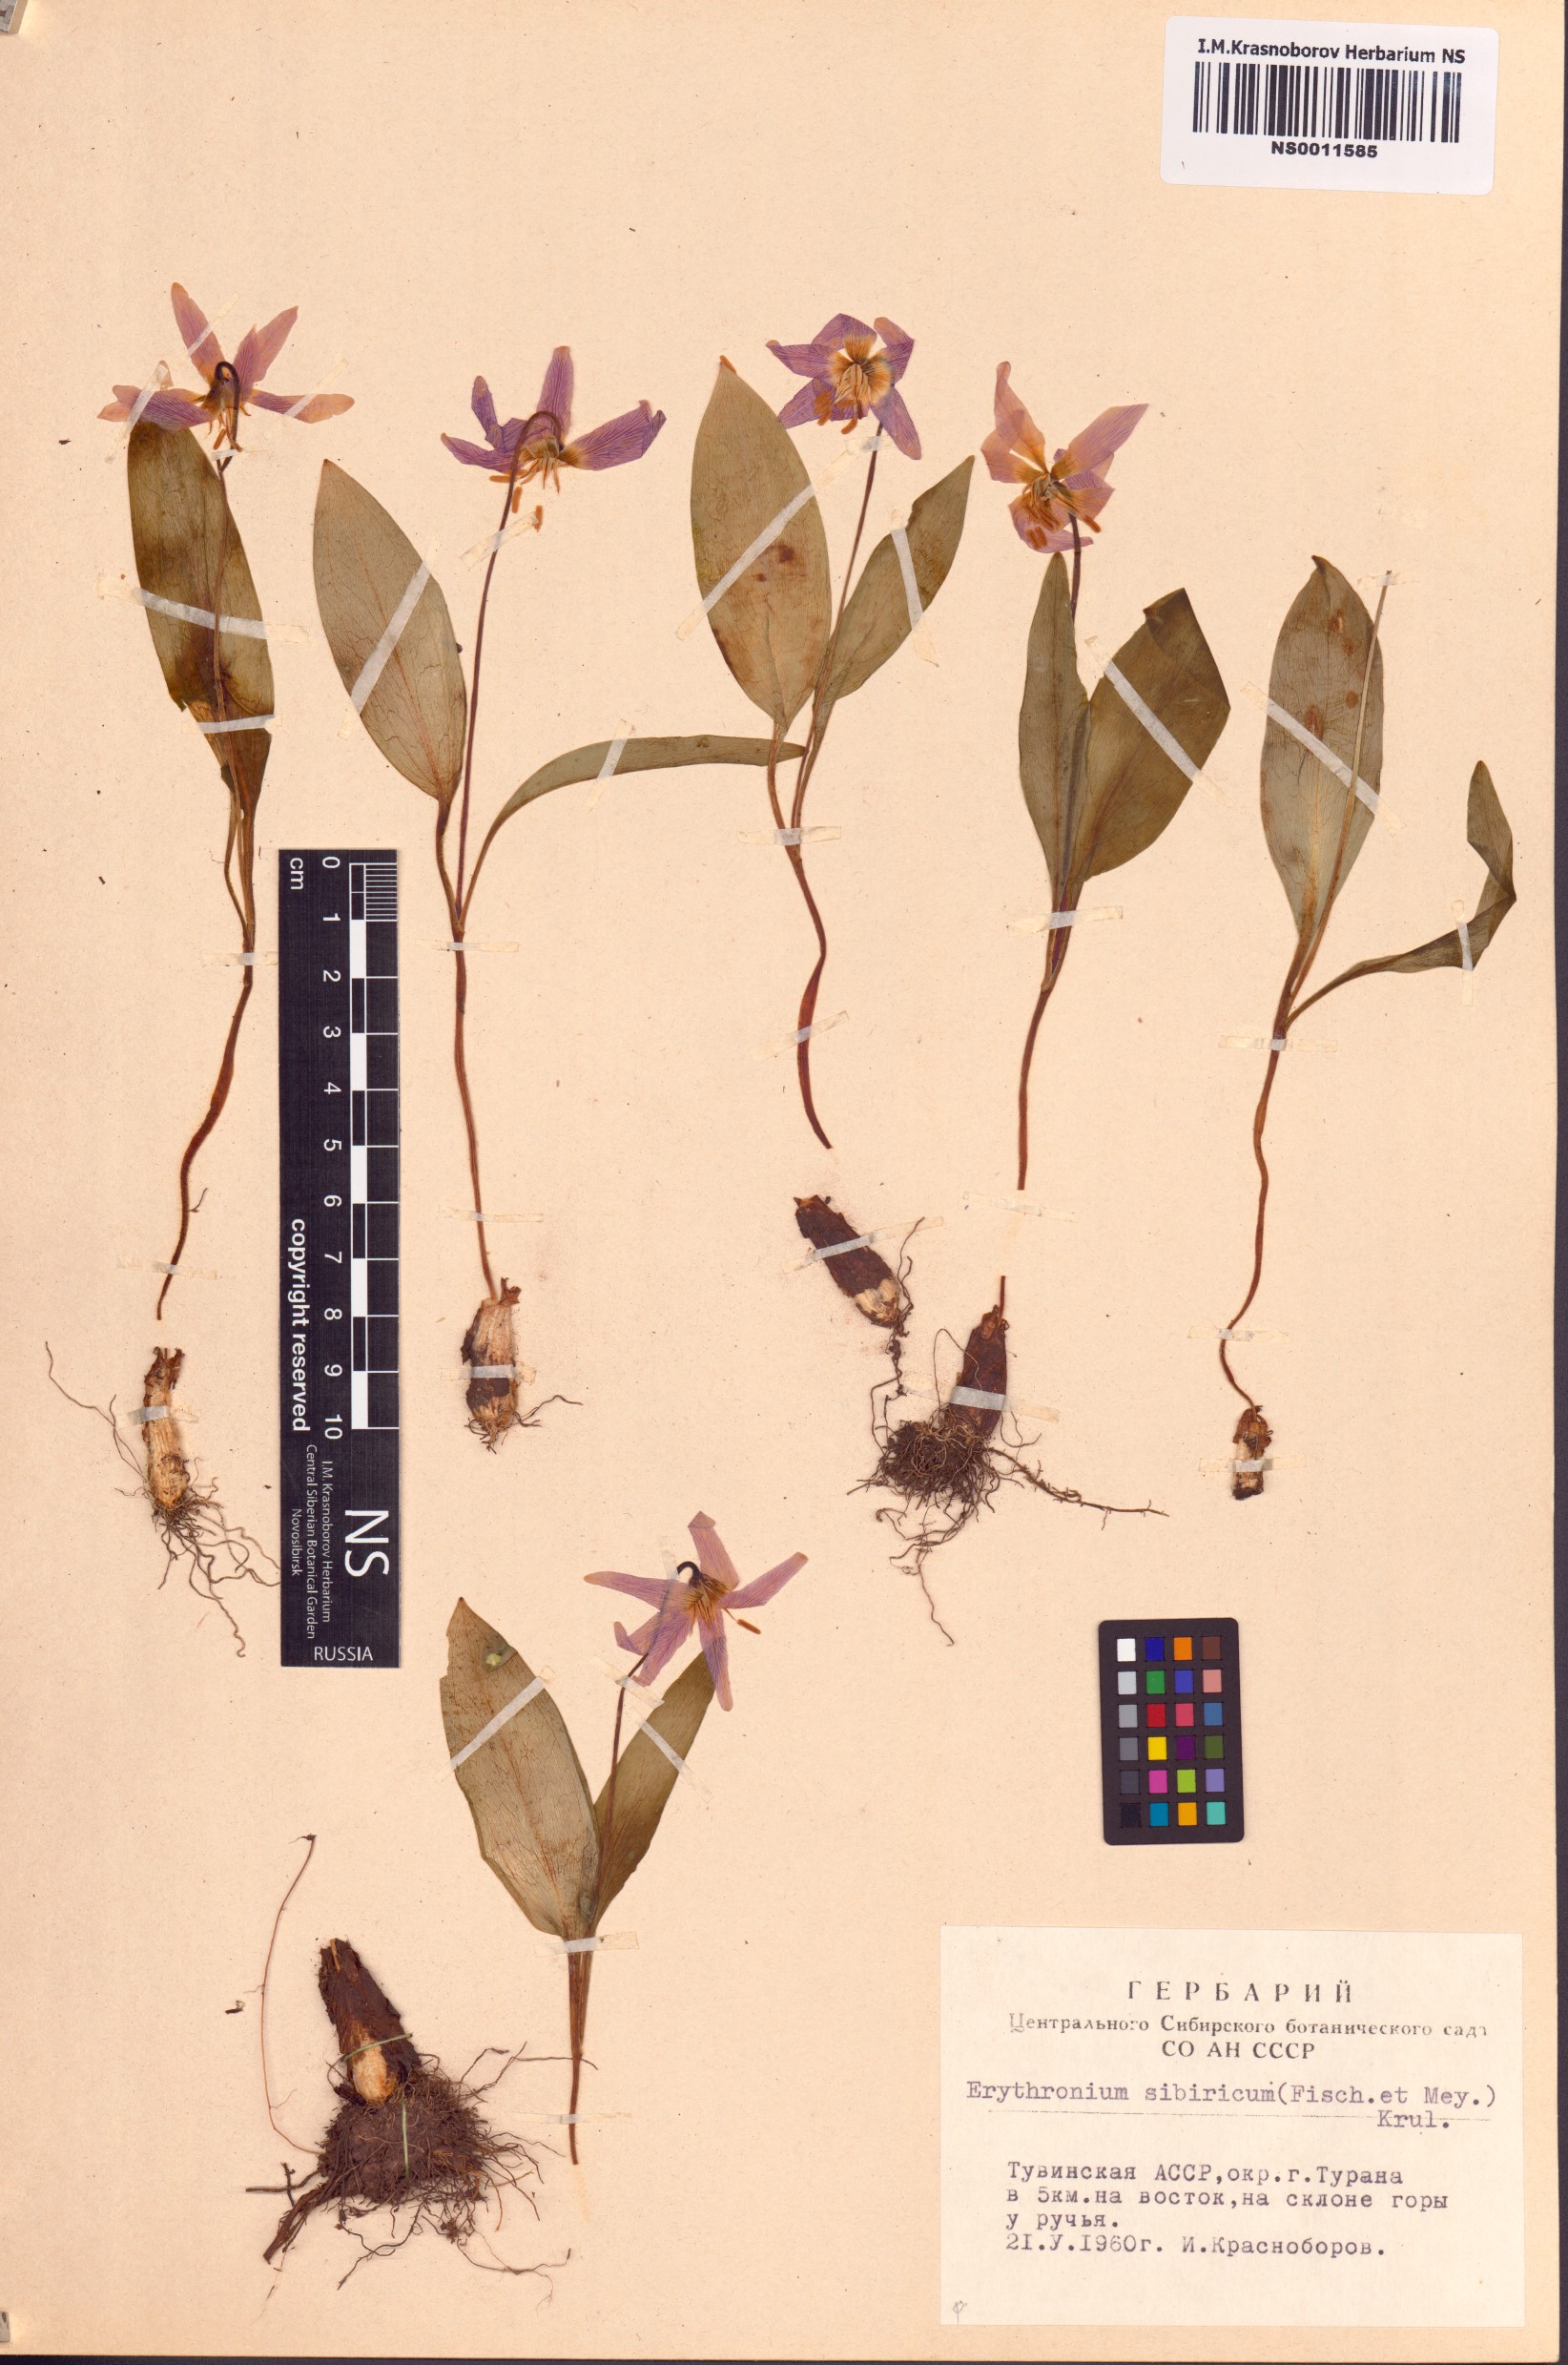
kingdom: Plantae
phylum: Tracheophyta
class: Liliopsida
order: Liliales
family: Liliaceae
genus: Erythronium
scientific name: Erythronium sibiricum
